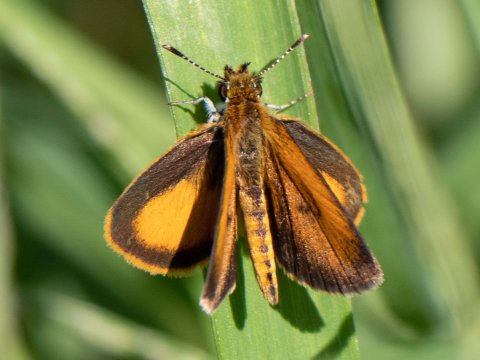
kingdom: Animalia
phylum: Arthropoda
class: Insecta
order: Lepidoptera
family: Hesperiidae
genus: Ancyloxypha
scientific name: Ancyloxypha numitor
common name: Least Skipper
